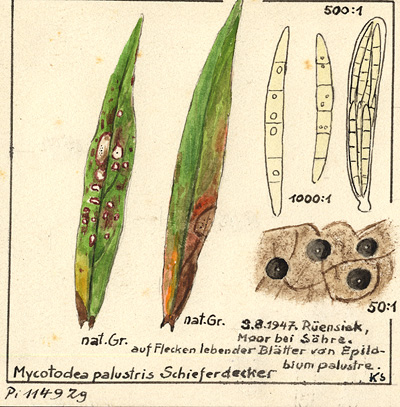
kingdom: Plantae
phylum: Tracheophyta
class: Magnoliopsida
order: Myrtales
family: Onagraceae
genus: Epilobium
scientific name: Epilobium palustre
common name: Marsh willowherb
